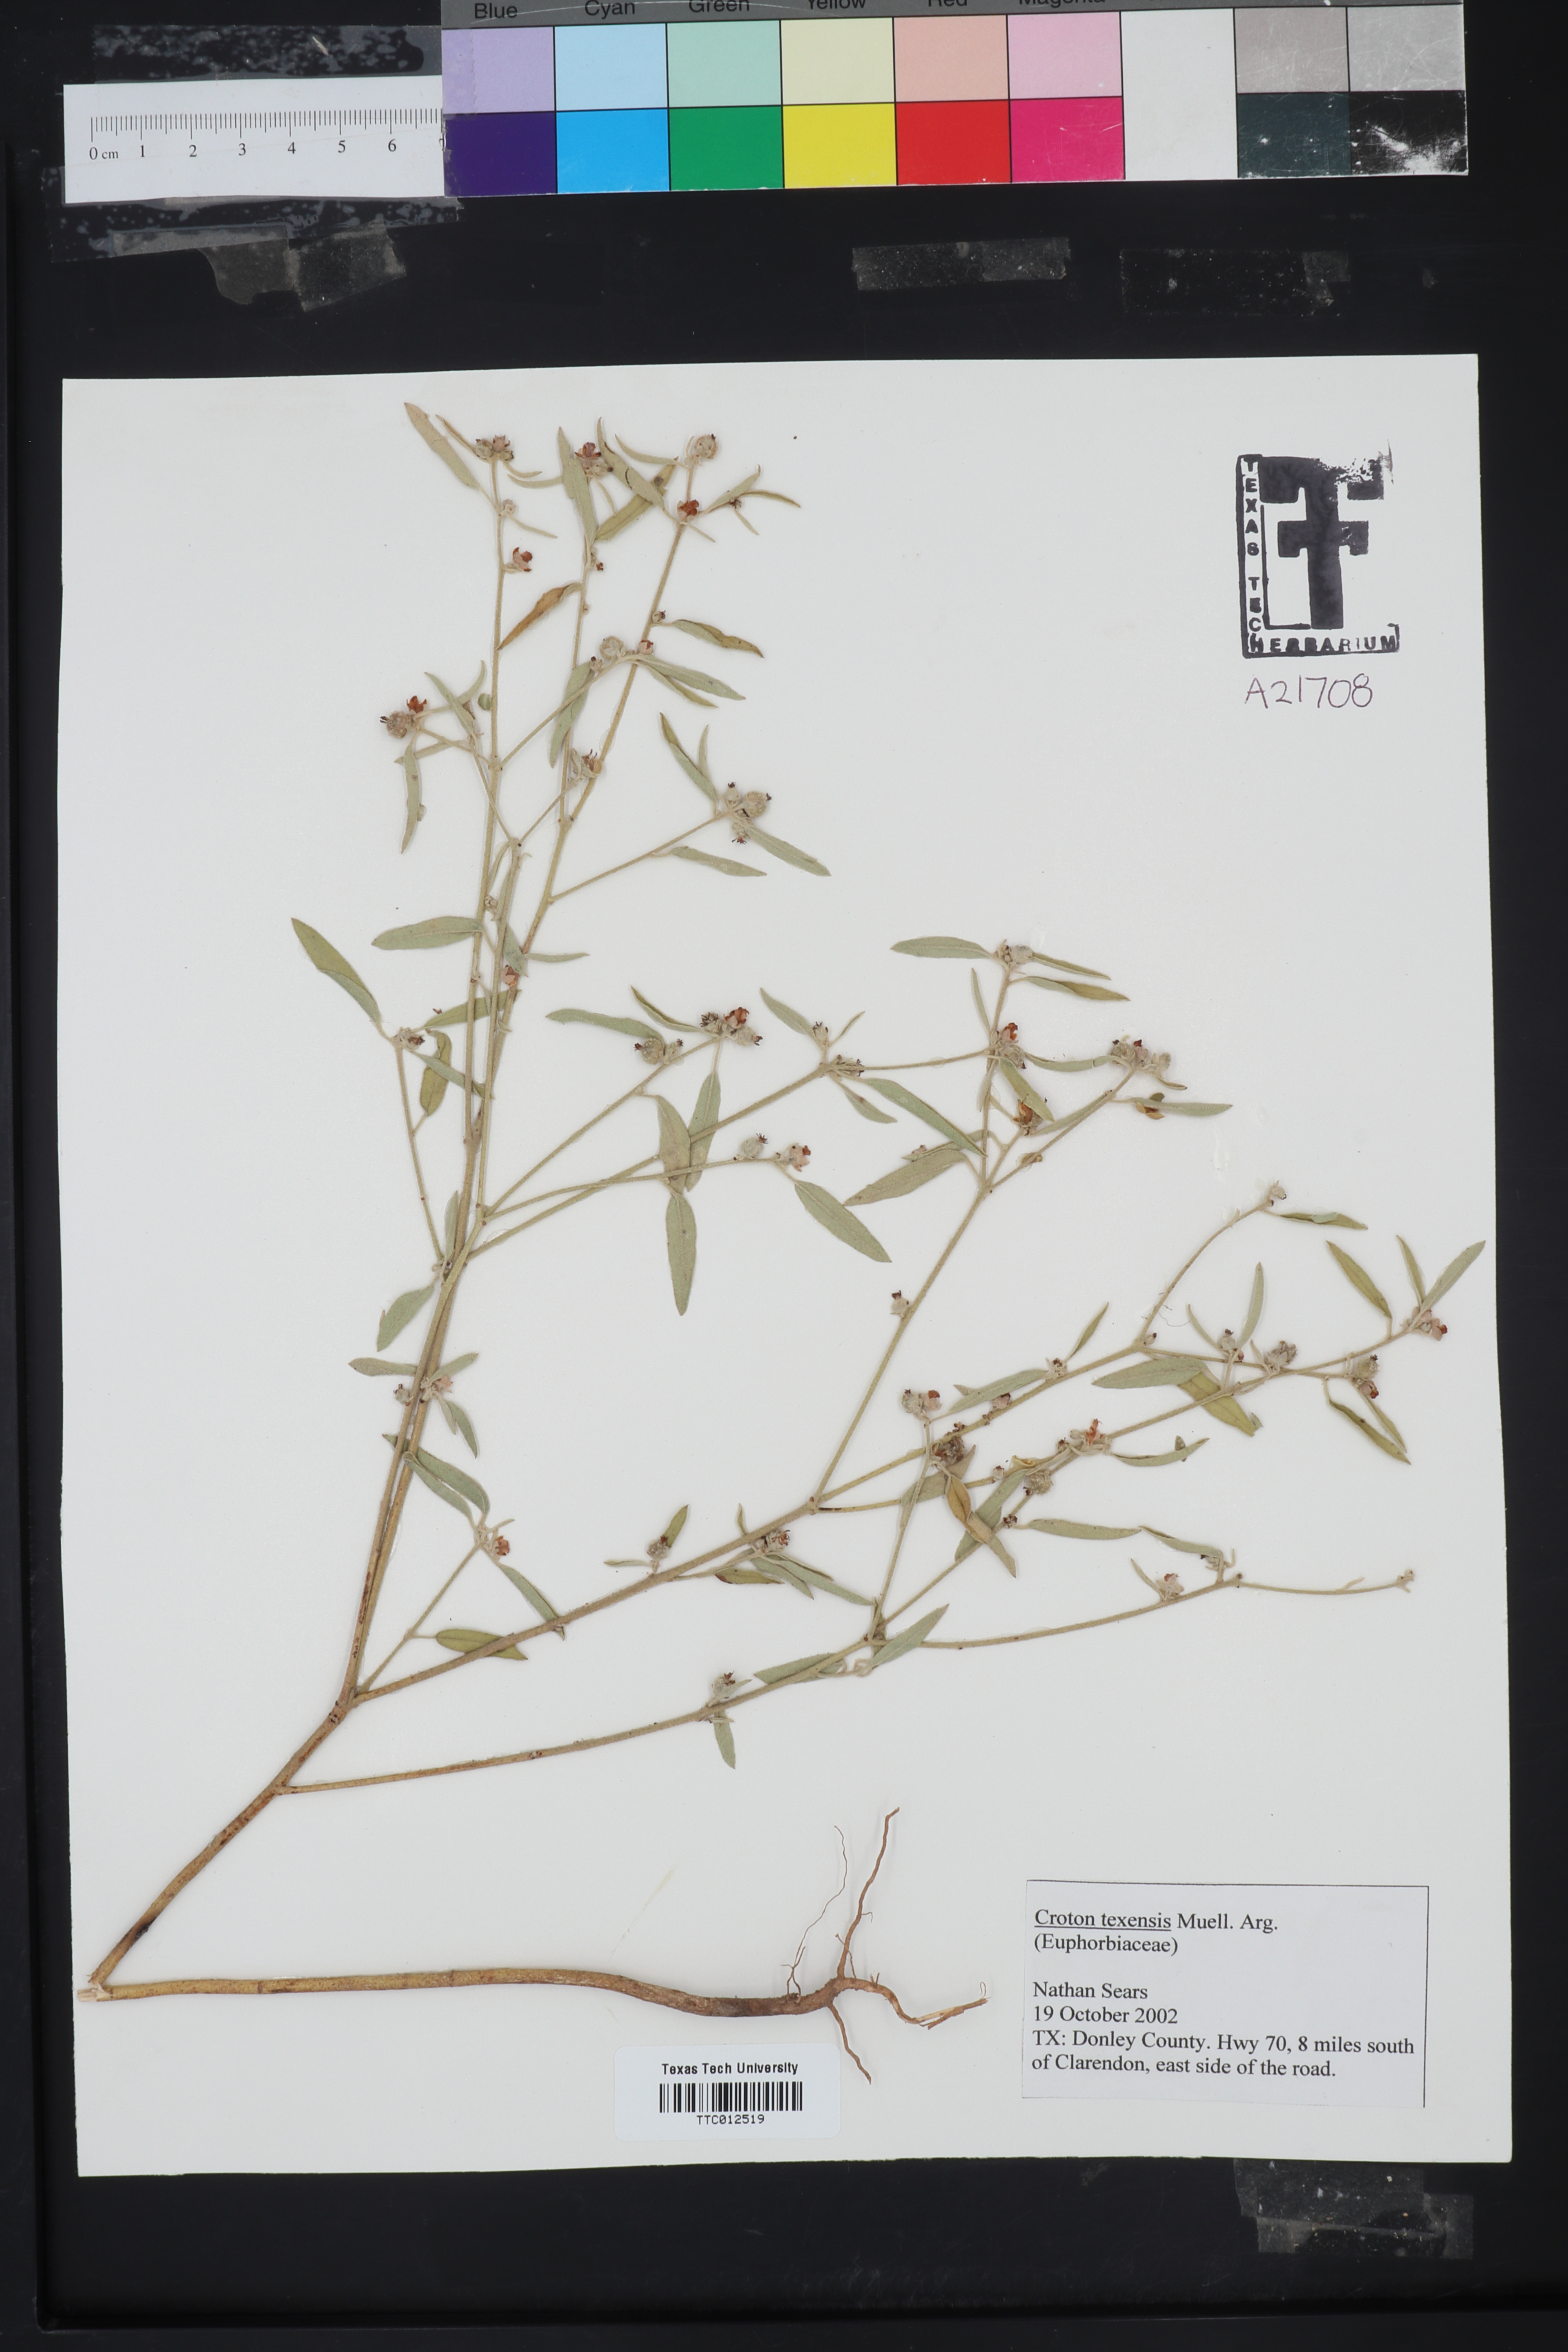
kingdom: Plantae
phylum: Tracheophyta
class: Magnoliopsida
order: Malpighiales
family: Euphorbiaceae
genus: Croton
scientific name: Croton texensis
